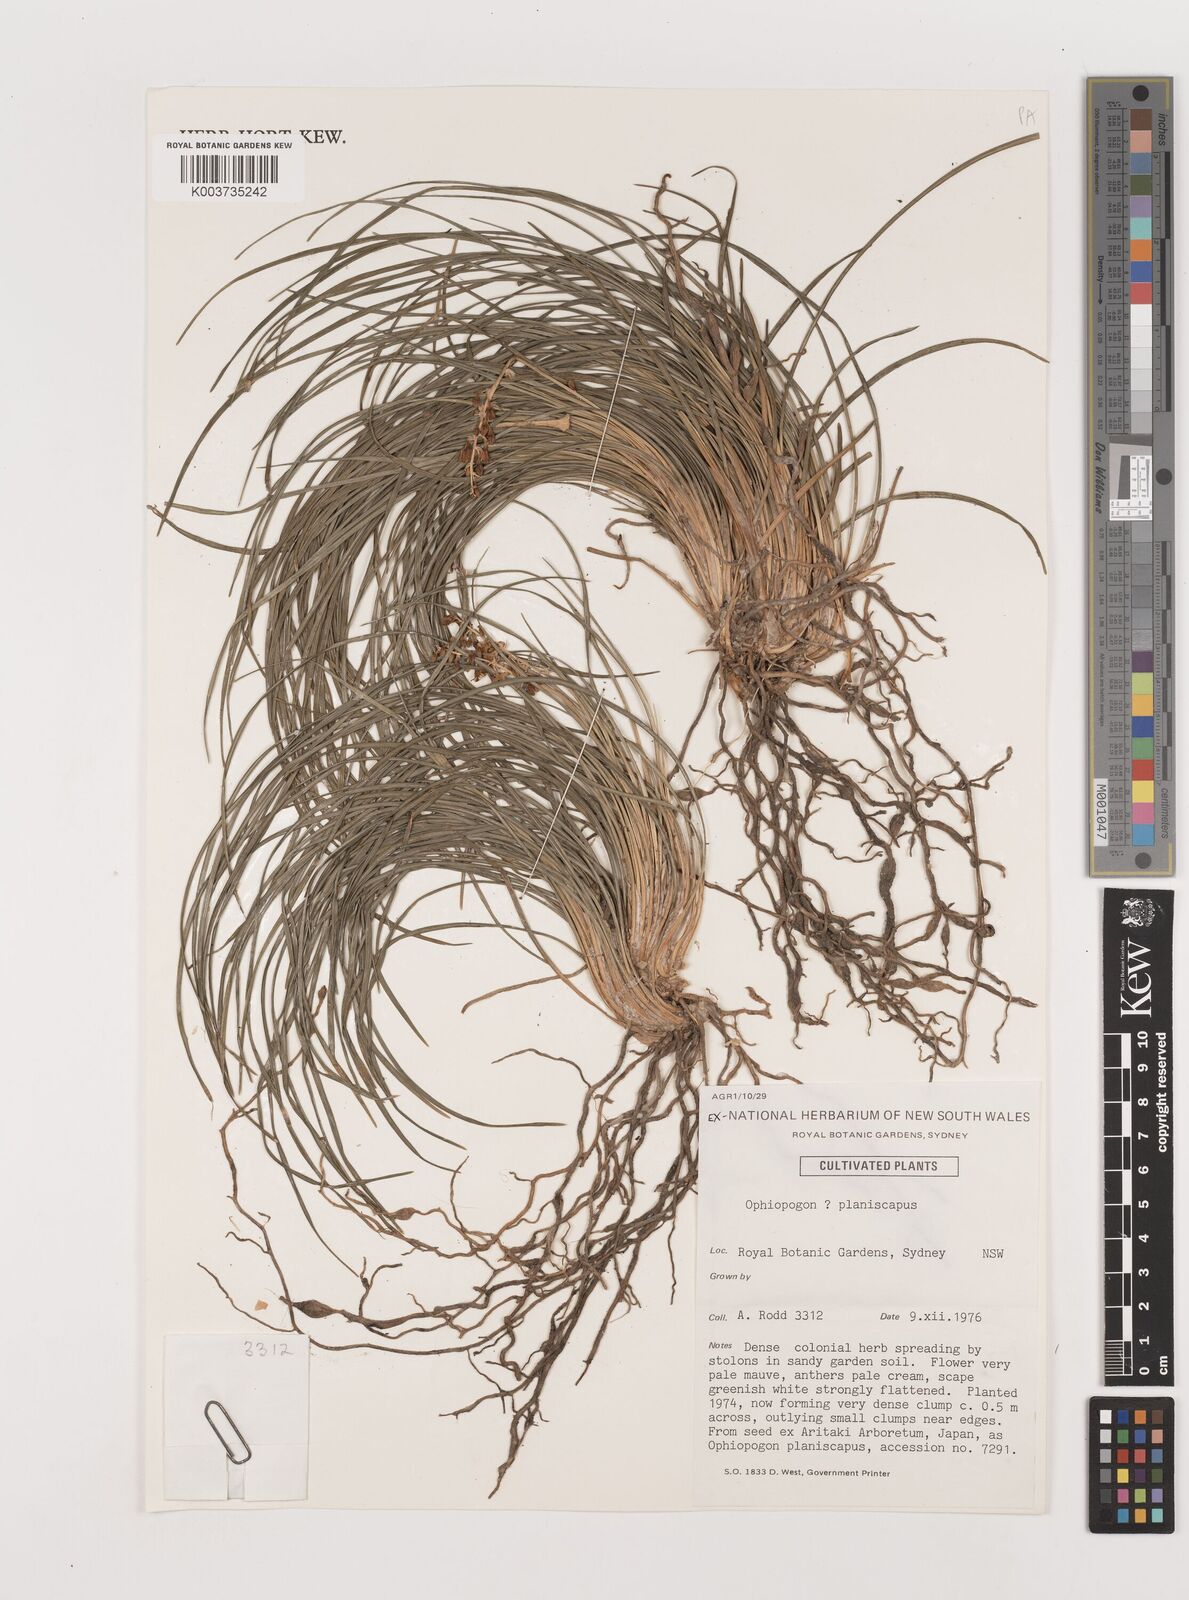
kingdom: Plantae
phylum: Tracheophyta
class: Liliopsida
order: Asparagales
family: Asparagaceae
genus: Ophiopogon
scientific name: Ophiopogon planiscapus
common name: Black mondo
